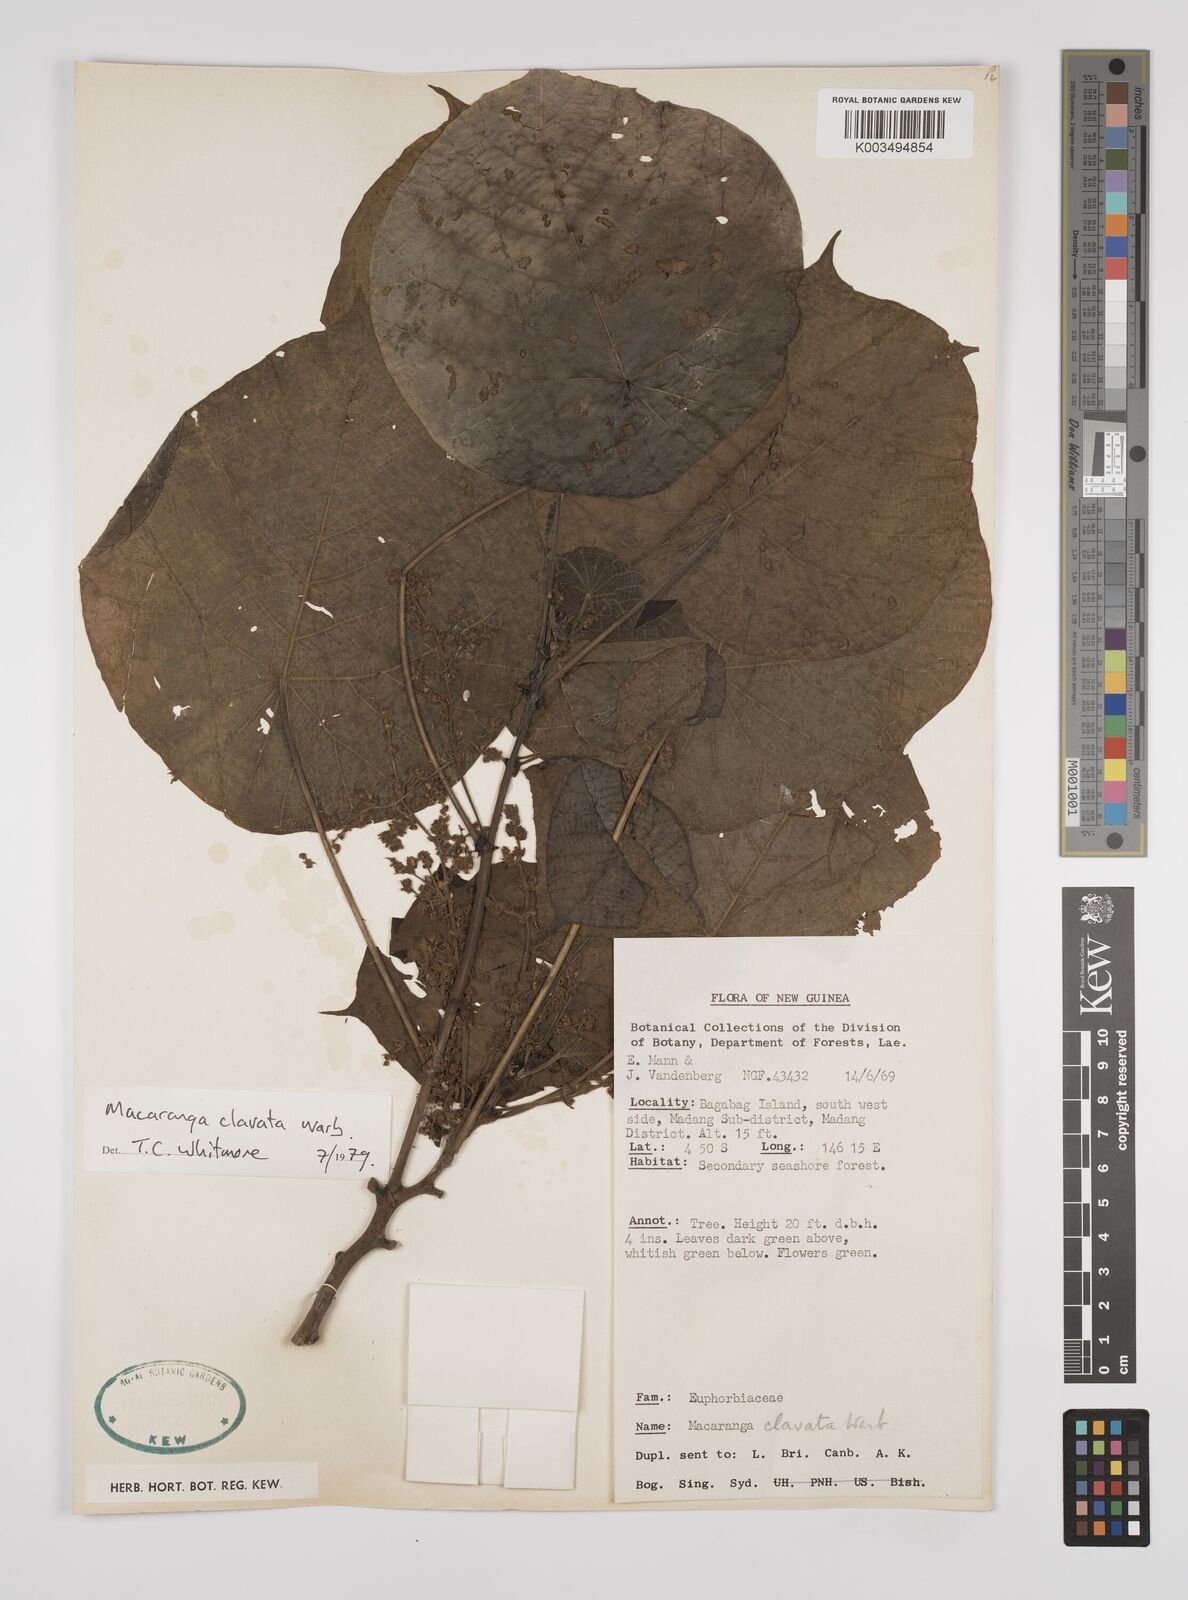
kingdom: Plantae
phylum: Tracheophyta
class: Magnoliopsida
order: Malpighiales
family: Euphorbiaceae
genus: Macaranga
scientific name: Macaranga clavata
